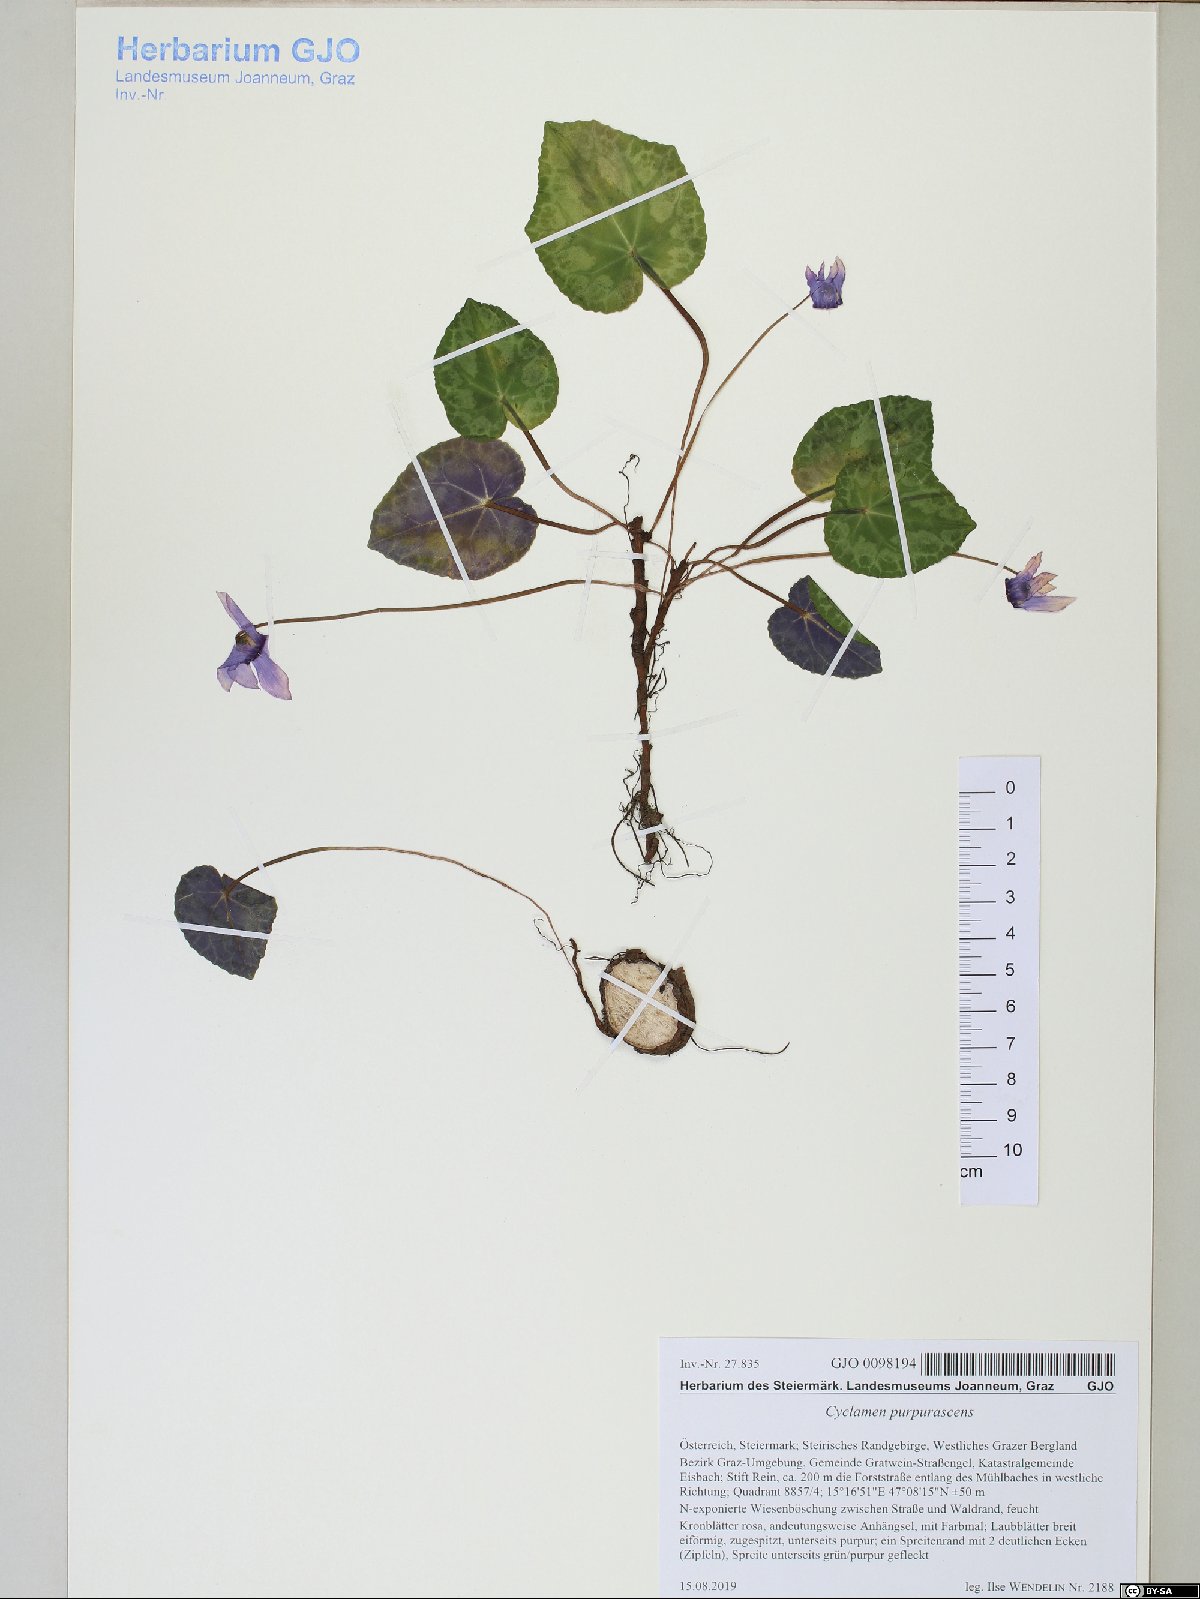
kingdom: Plantae
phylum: Tracheophyta
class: Magnoliopsida
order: Ericales
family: Primulaceae
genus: Cyclamen
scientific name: Cyclamen purpurascens
